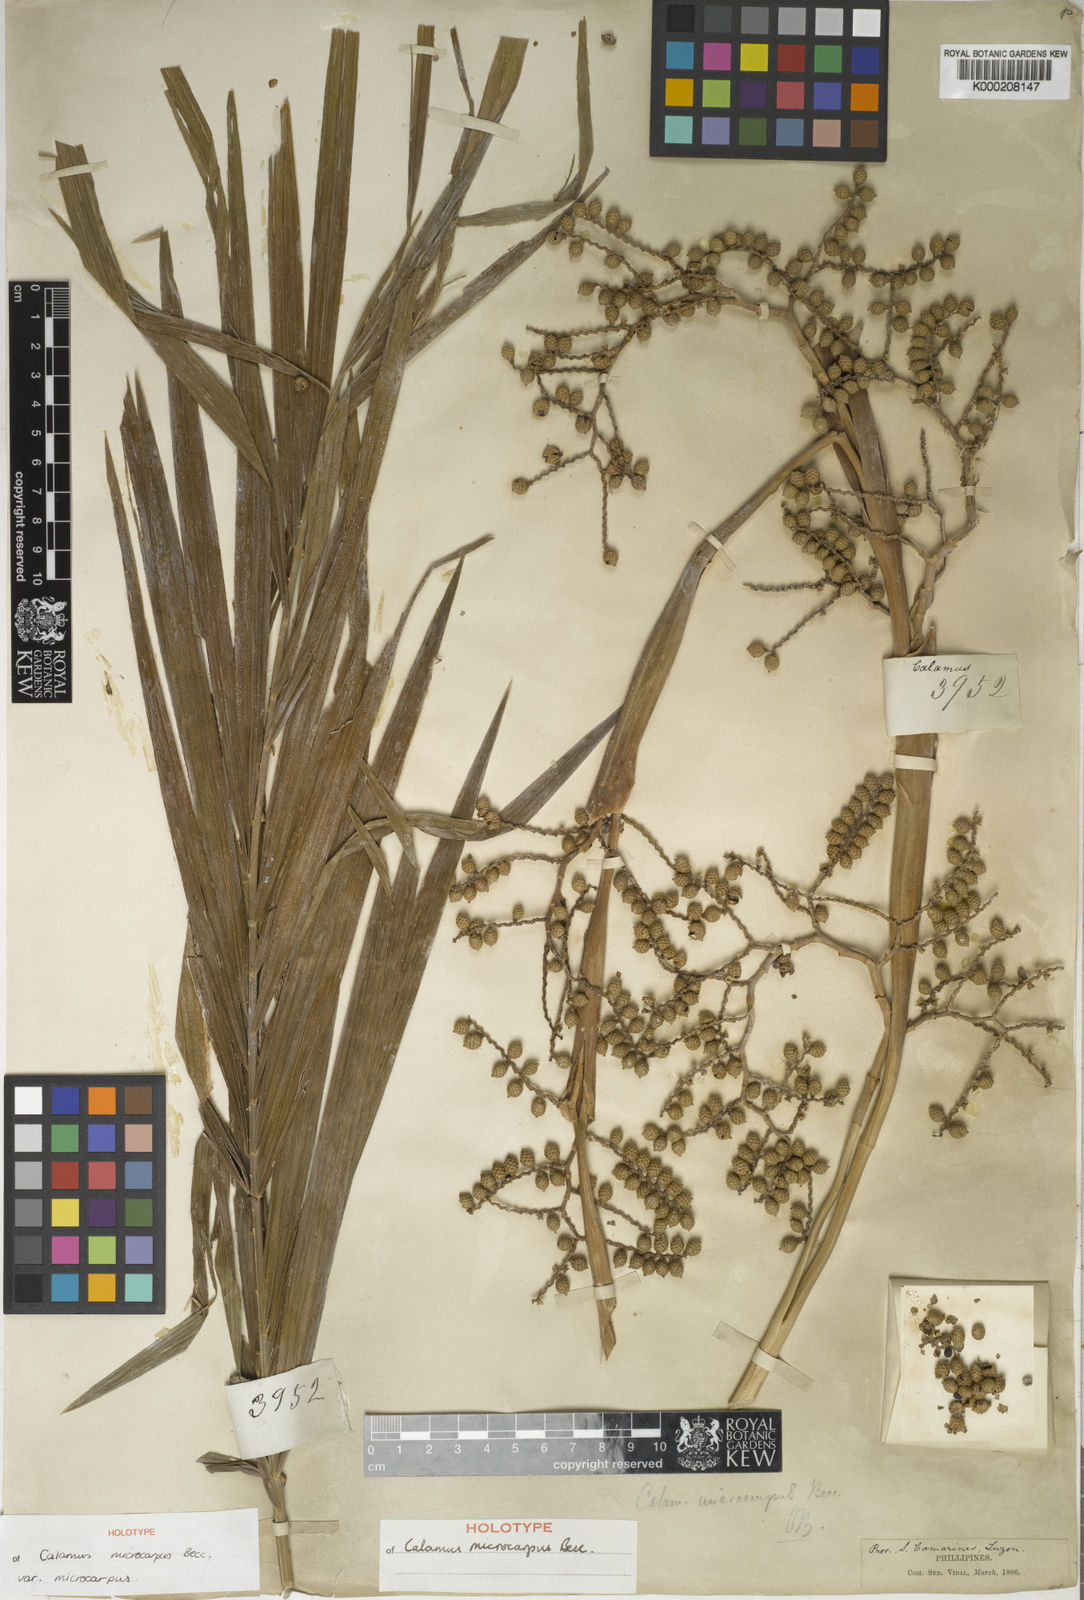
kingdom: Plantae
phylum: Tracheophyta
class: Liliopsida
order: Arecales
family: Arecaceae
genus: Calamus
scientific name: Calamus siphonospathus
